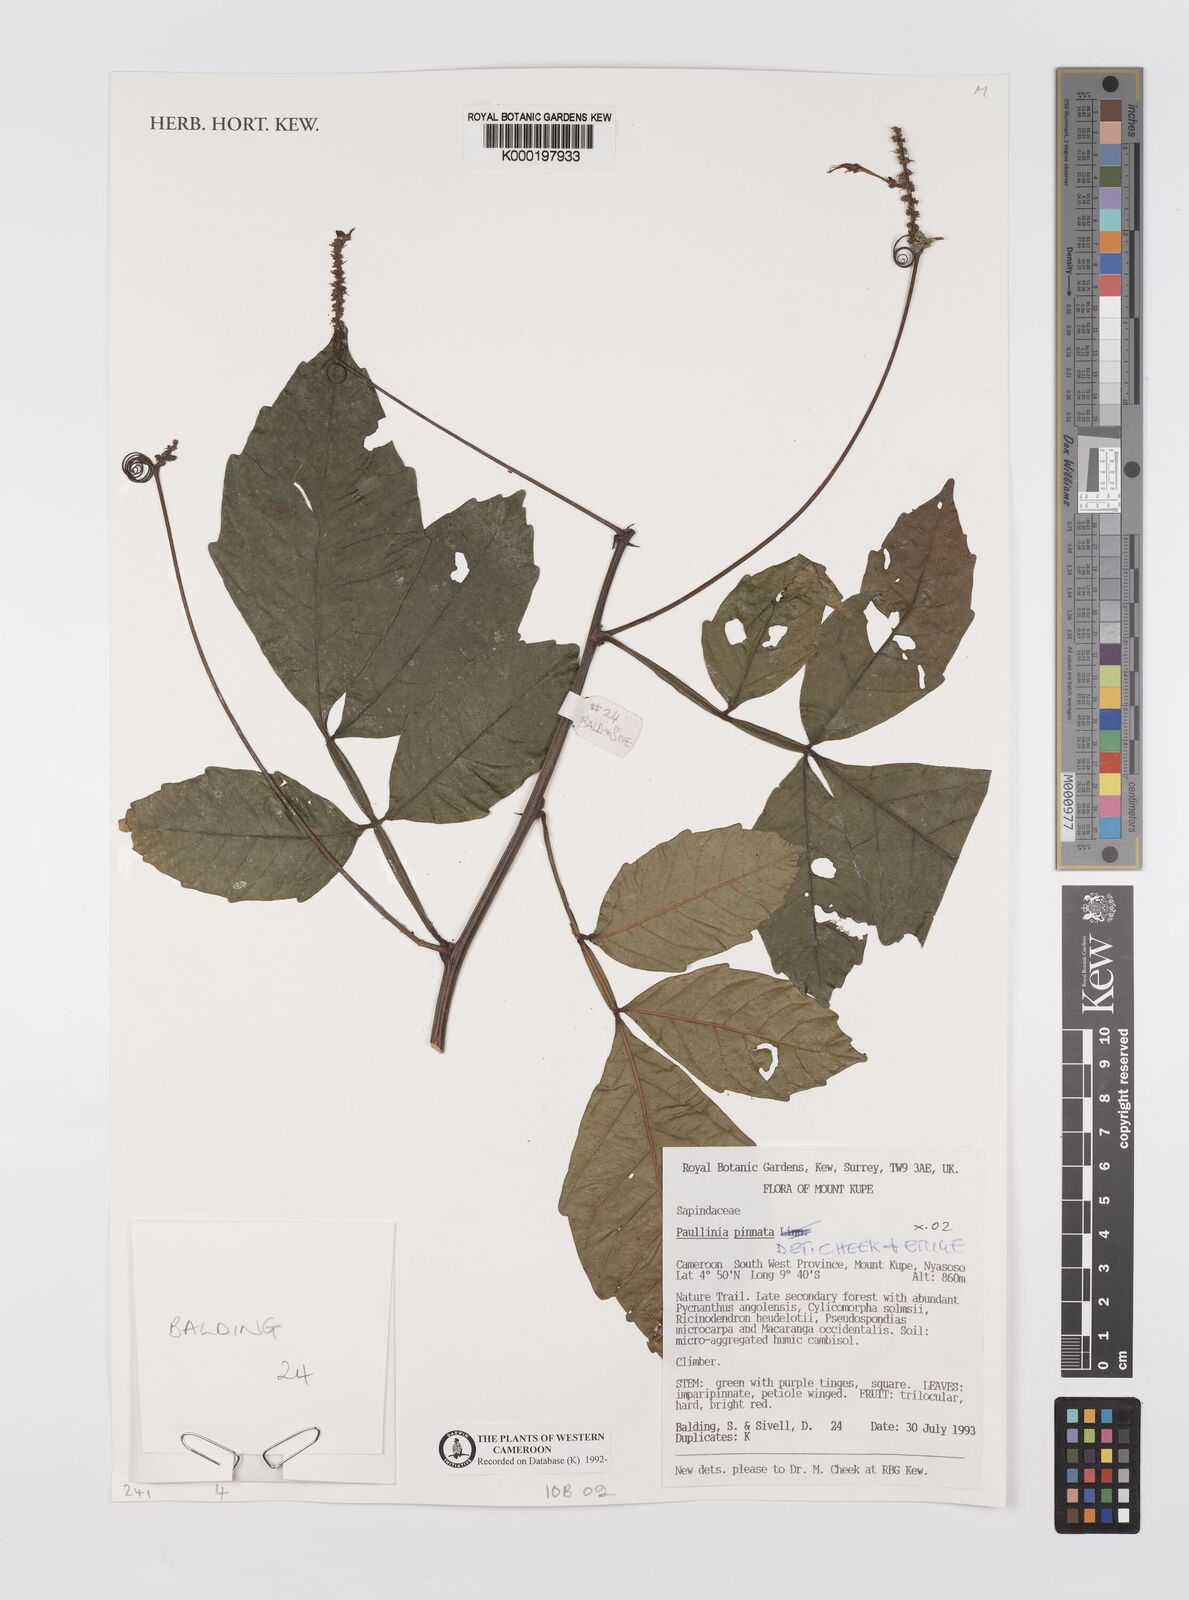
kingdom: Plantae
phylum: Tracheophyta
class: Magnoliopsida
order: Sapindales
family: Sapindaceae
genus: Paullinia
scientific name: Paullinia pinnata
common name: Barbasco
